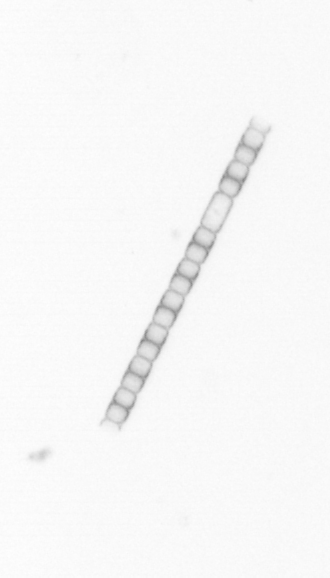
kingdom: Chromista
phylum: Ochrophyta
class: Bacillariophyceae
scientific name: Bacillariophyceae
